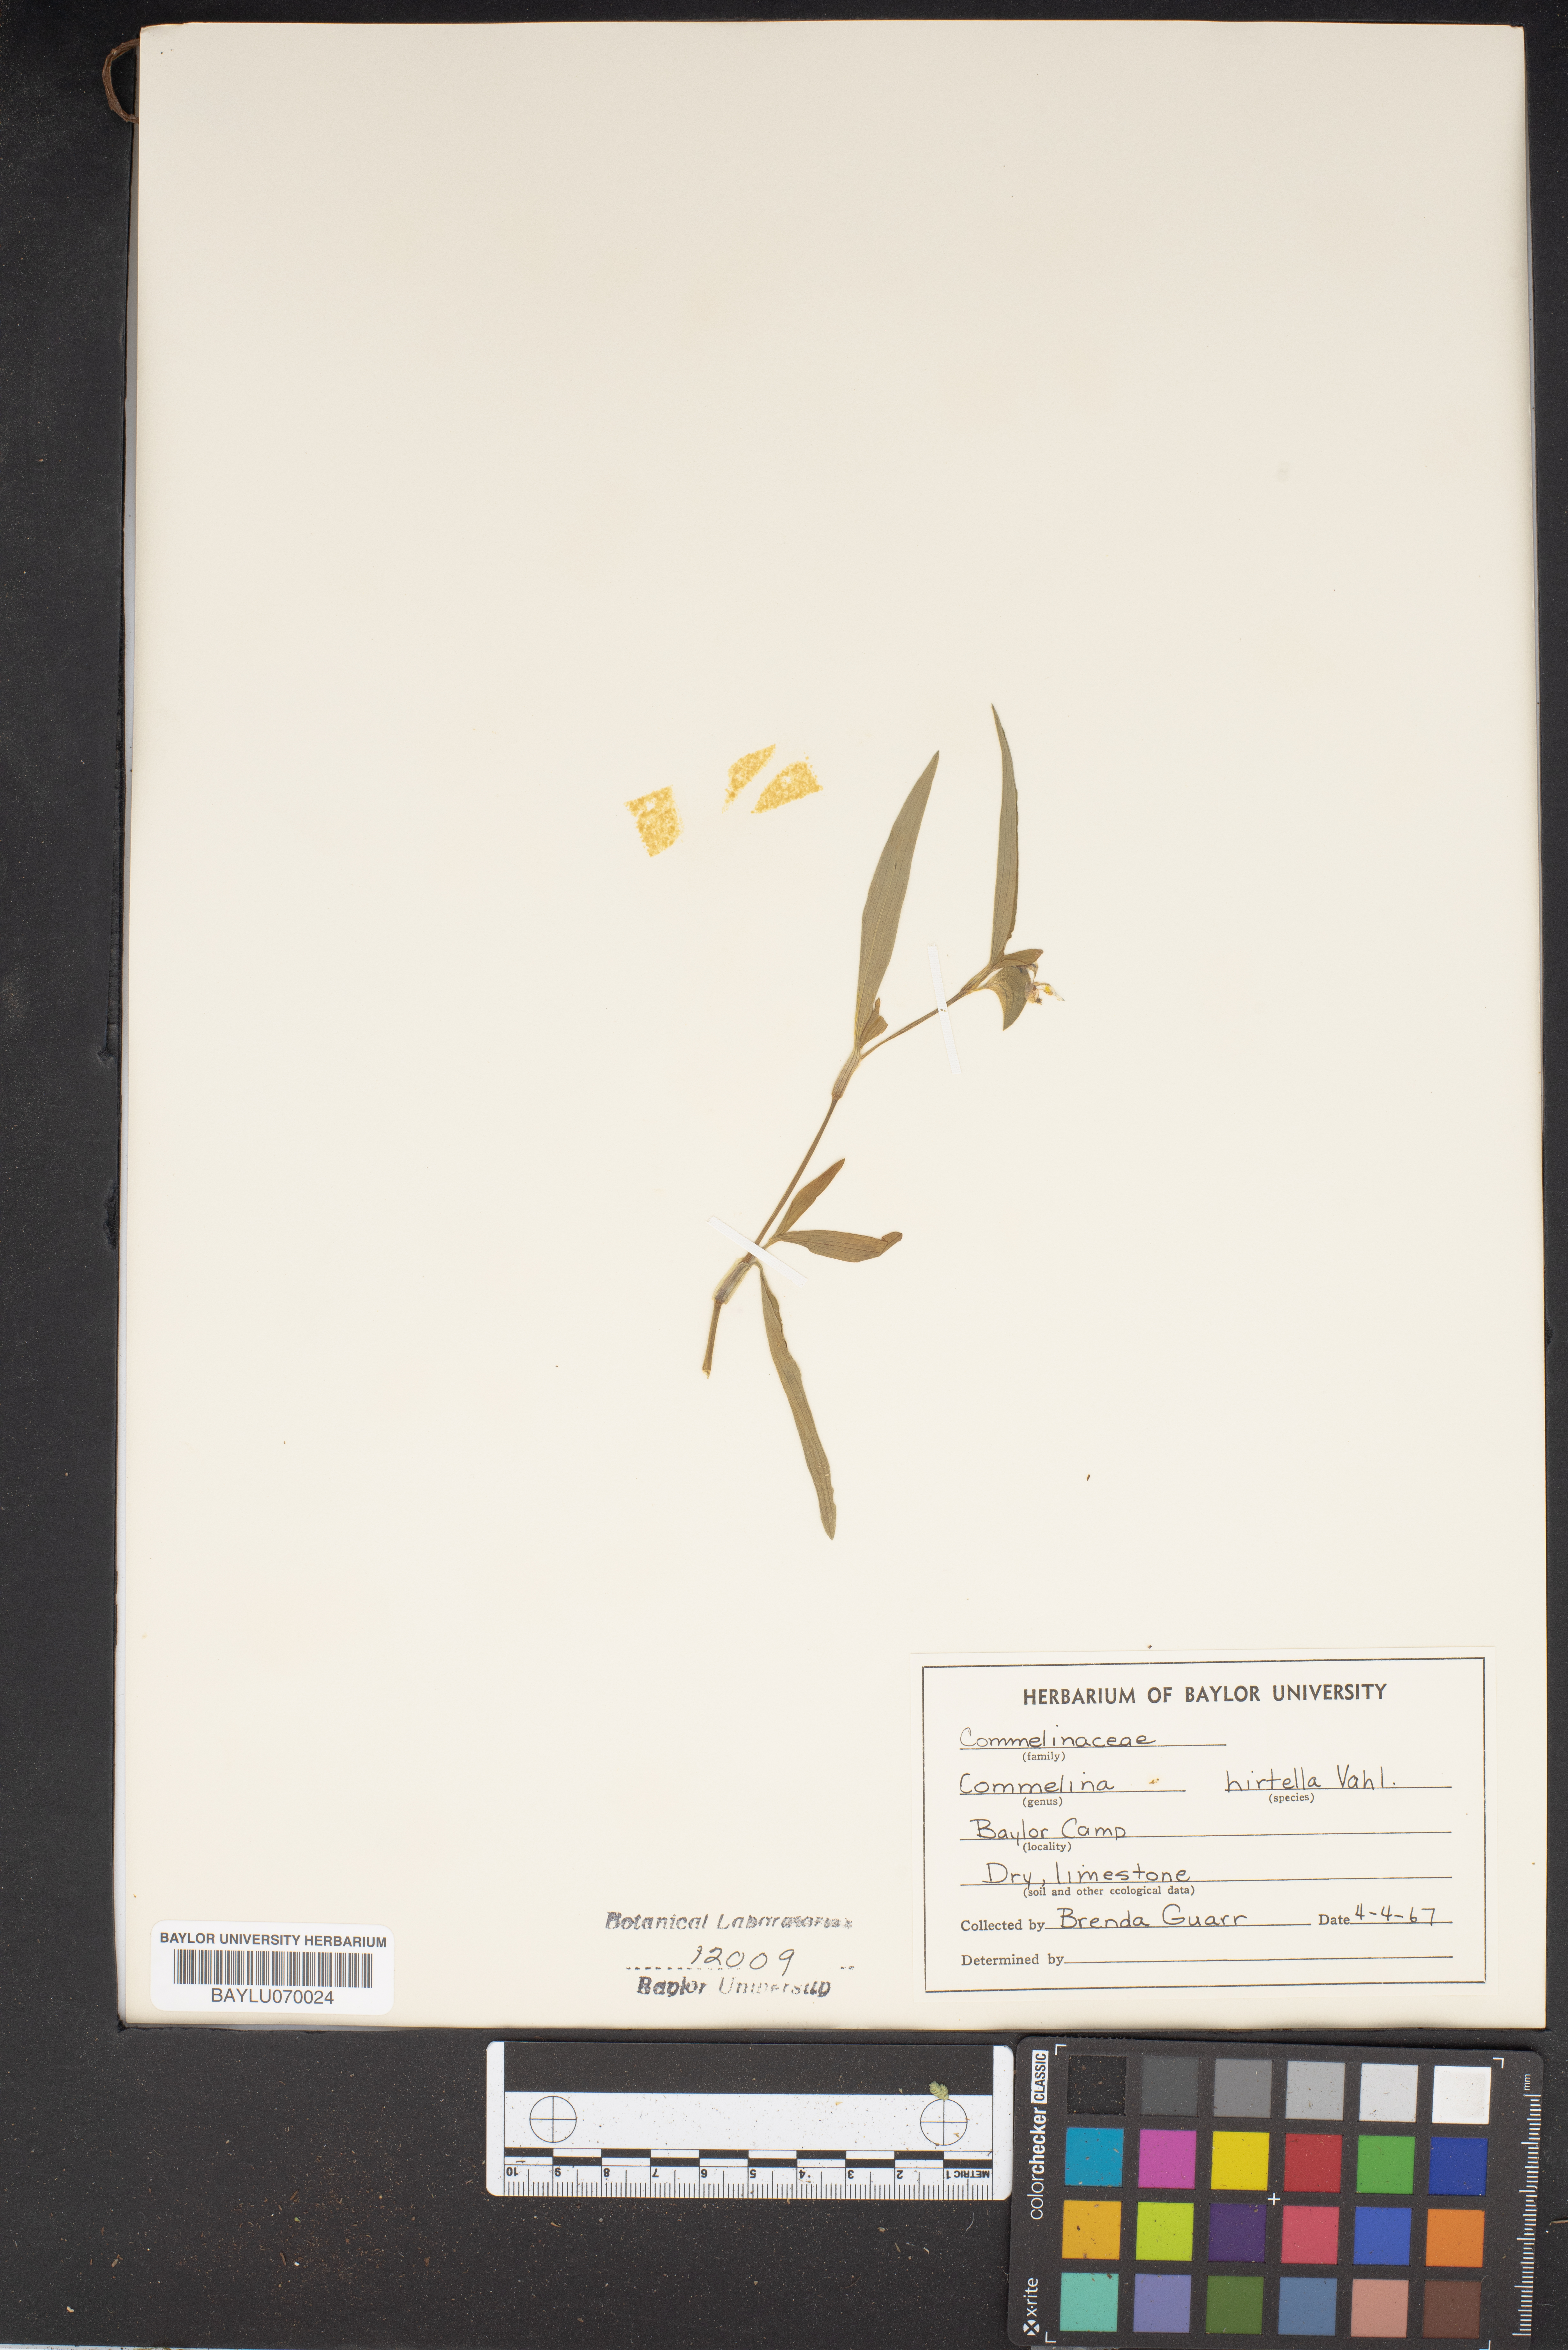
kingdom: Plantae
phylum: Tracheophyta
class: Liliopsida
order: Commelinales
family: Commelinaceae
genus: Commelina
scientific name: Commelina virginica
